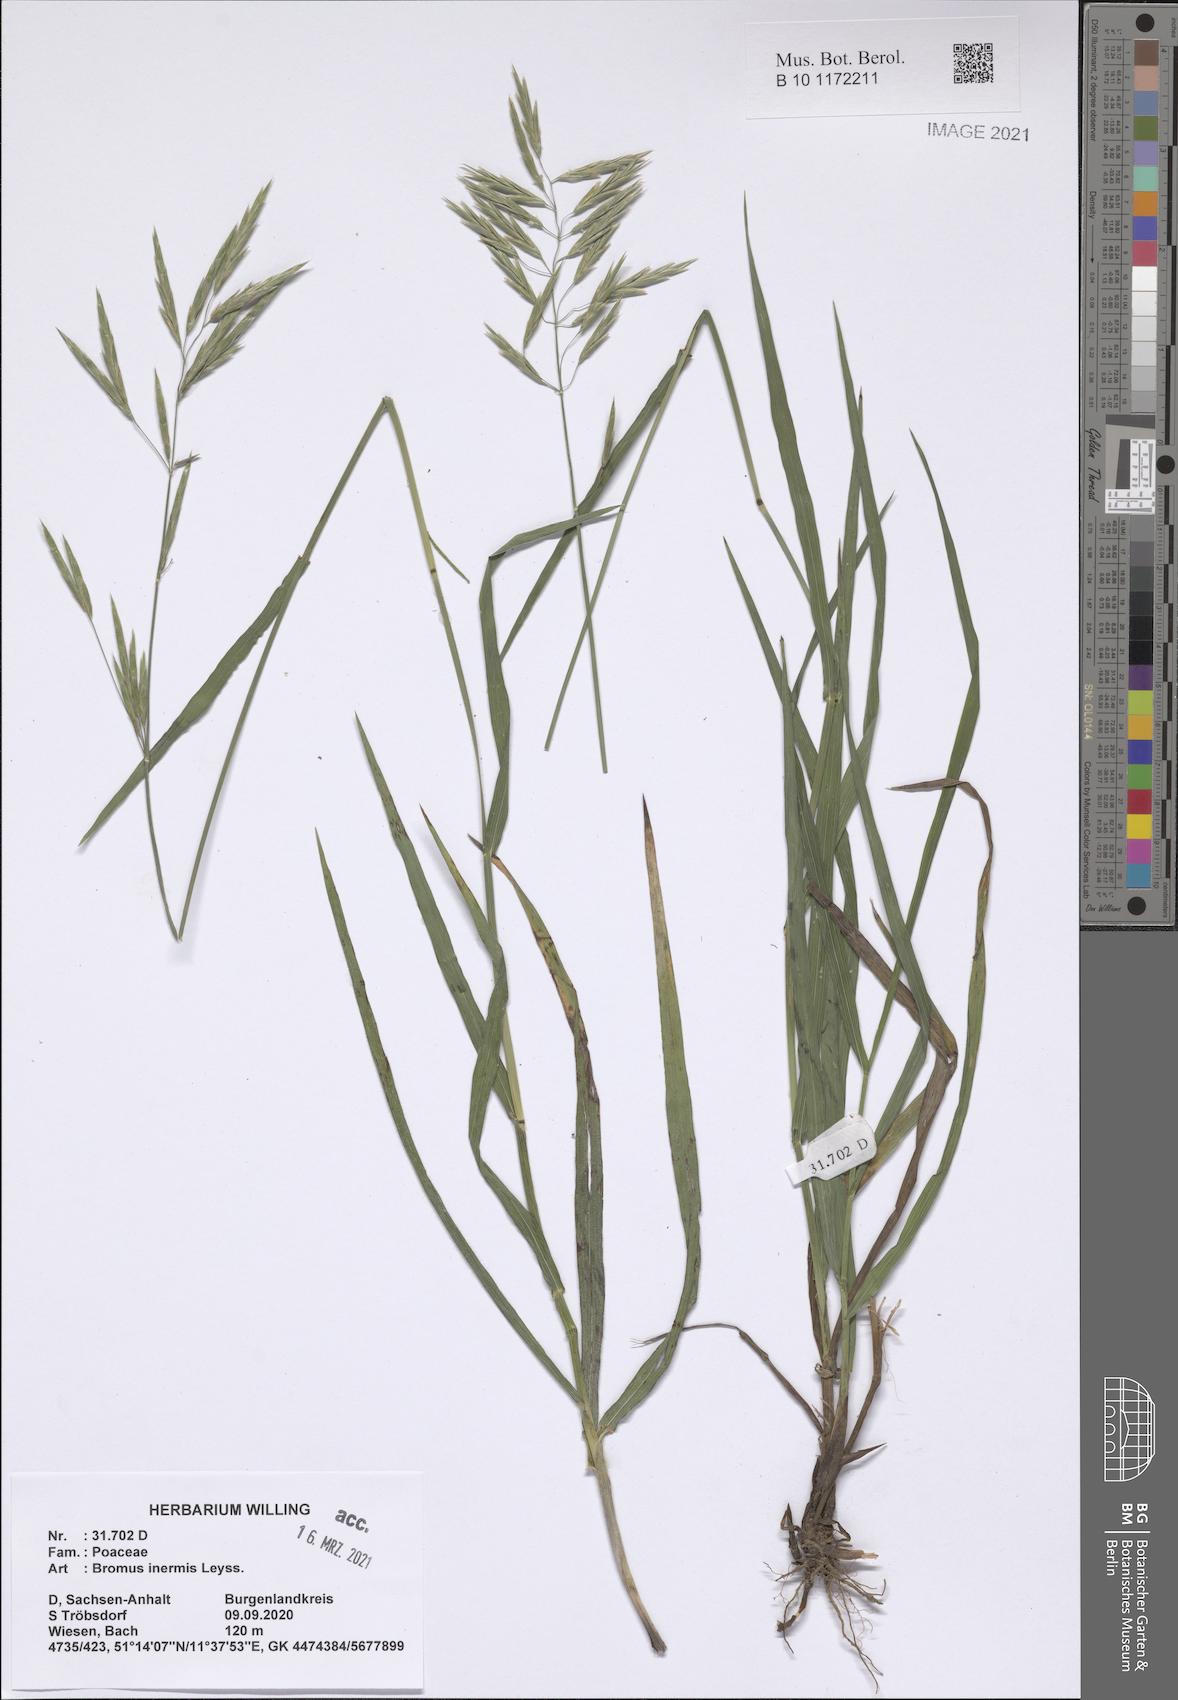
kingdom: Plantae
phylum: Tracheophyta
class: Liliopsida
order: Poales
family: Poaceae
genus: Bromus
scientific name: Bromus inermis
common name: Smooth brome
